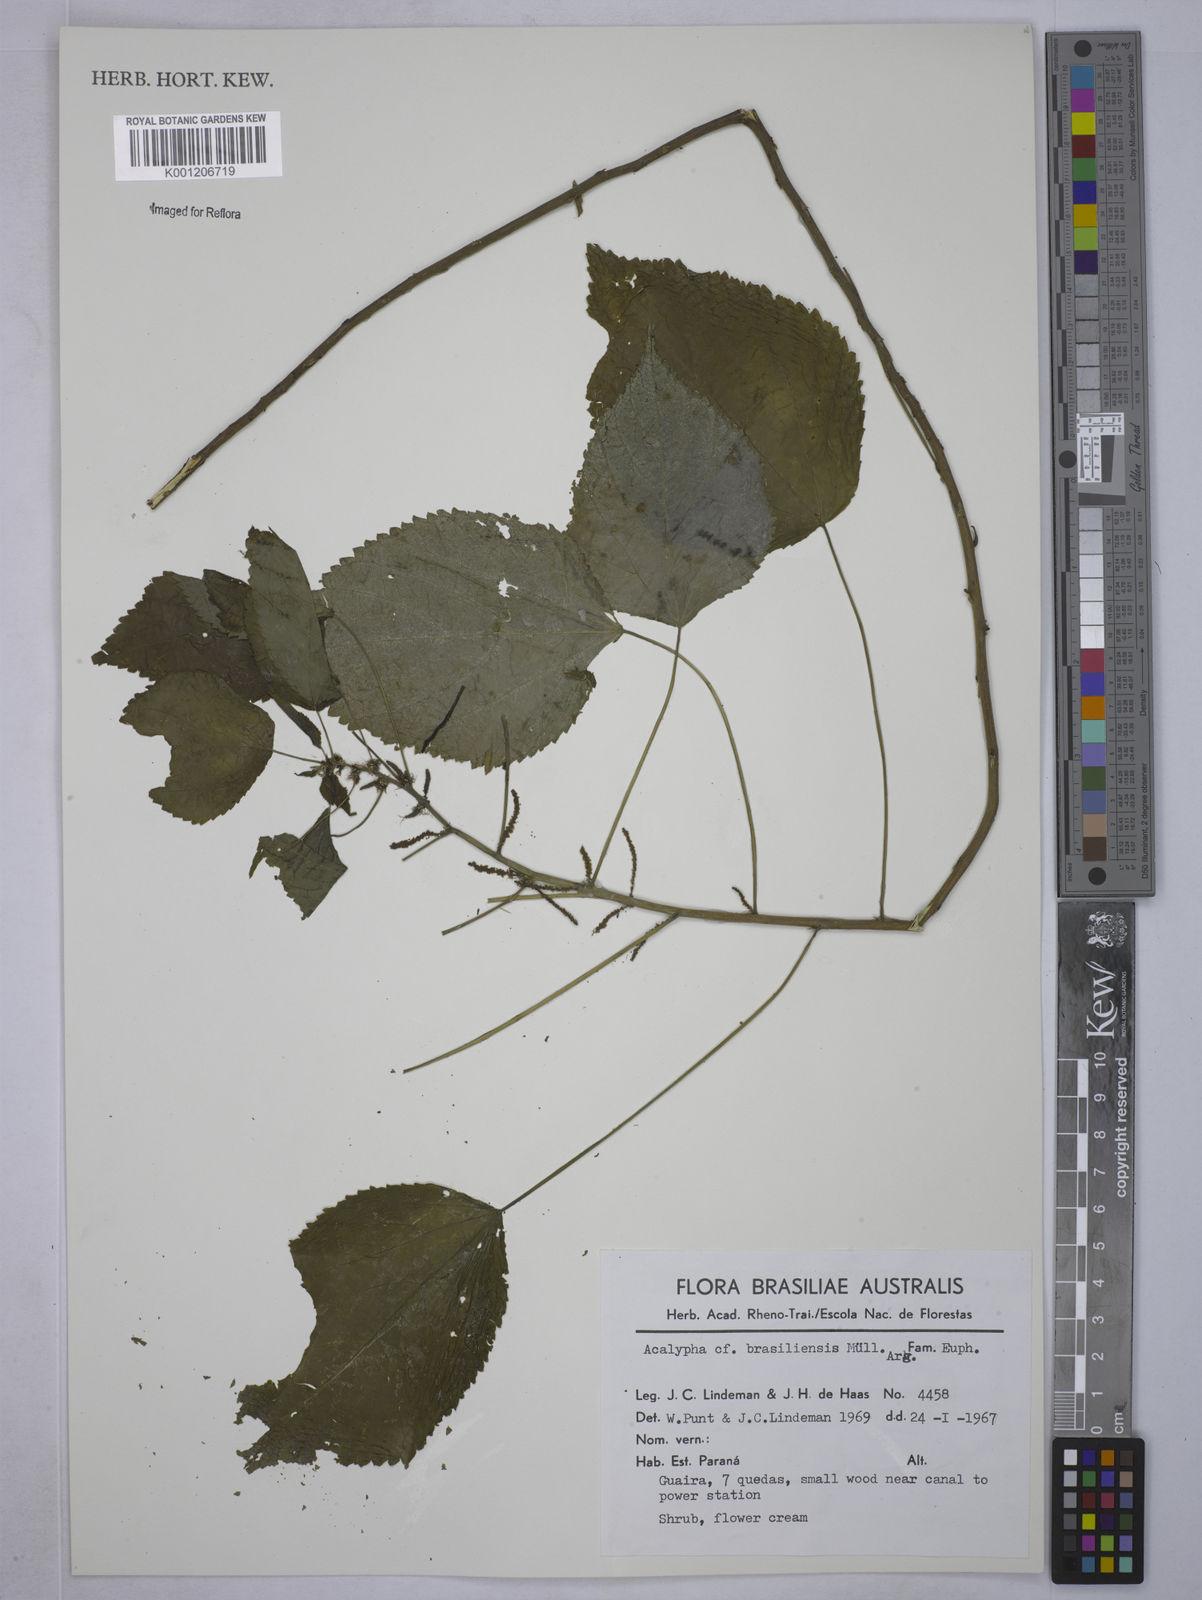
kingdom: Plantae
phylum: Tracheophyta
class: Magnoliopsida
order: Malpighiales
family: Euphorbiaceae
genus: Acalypha
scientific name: Acalypha
